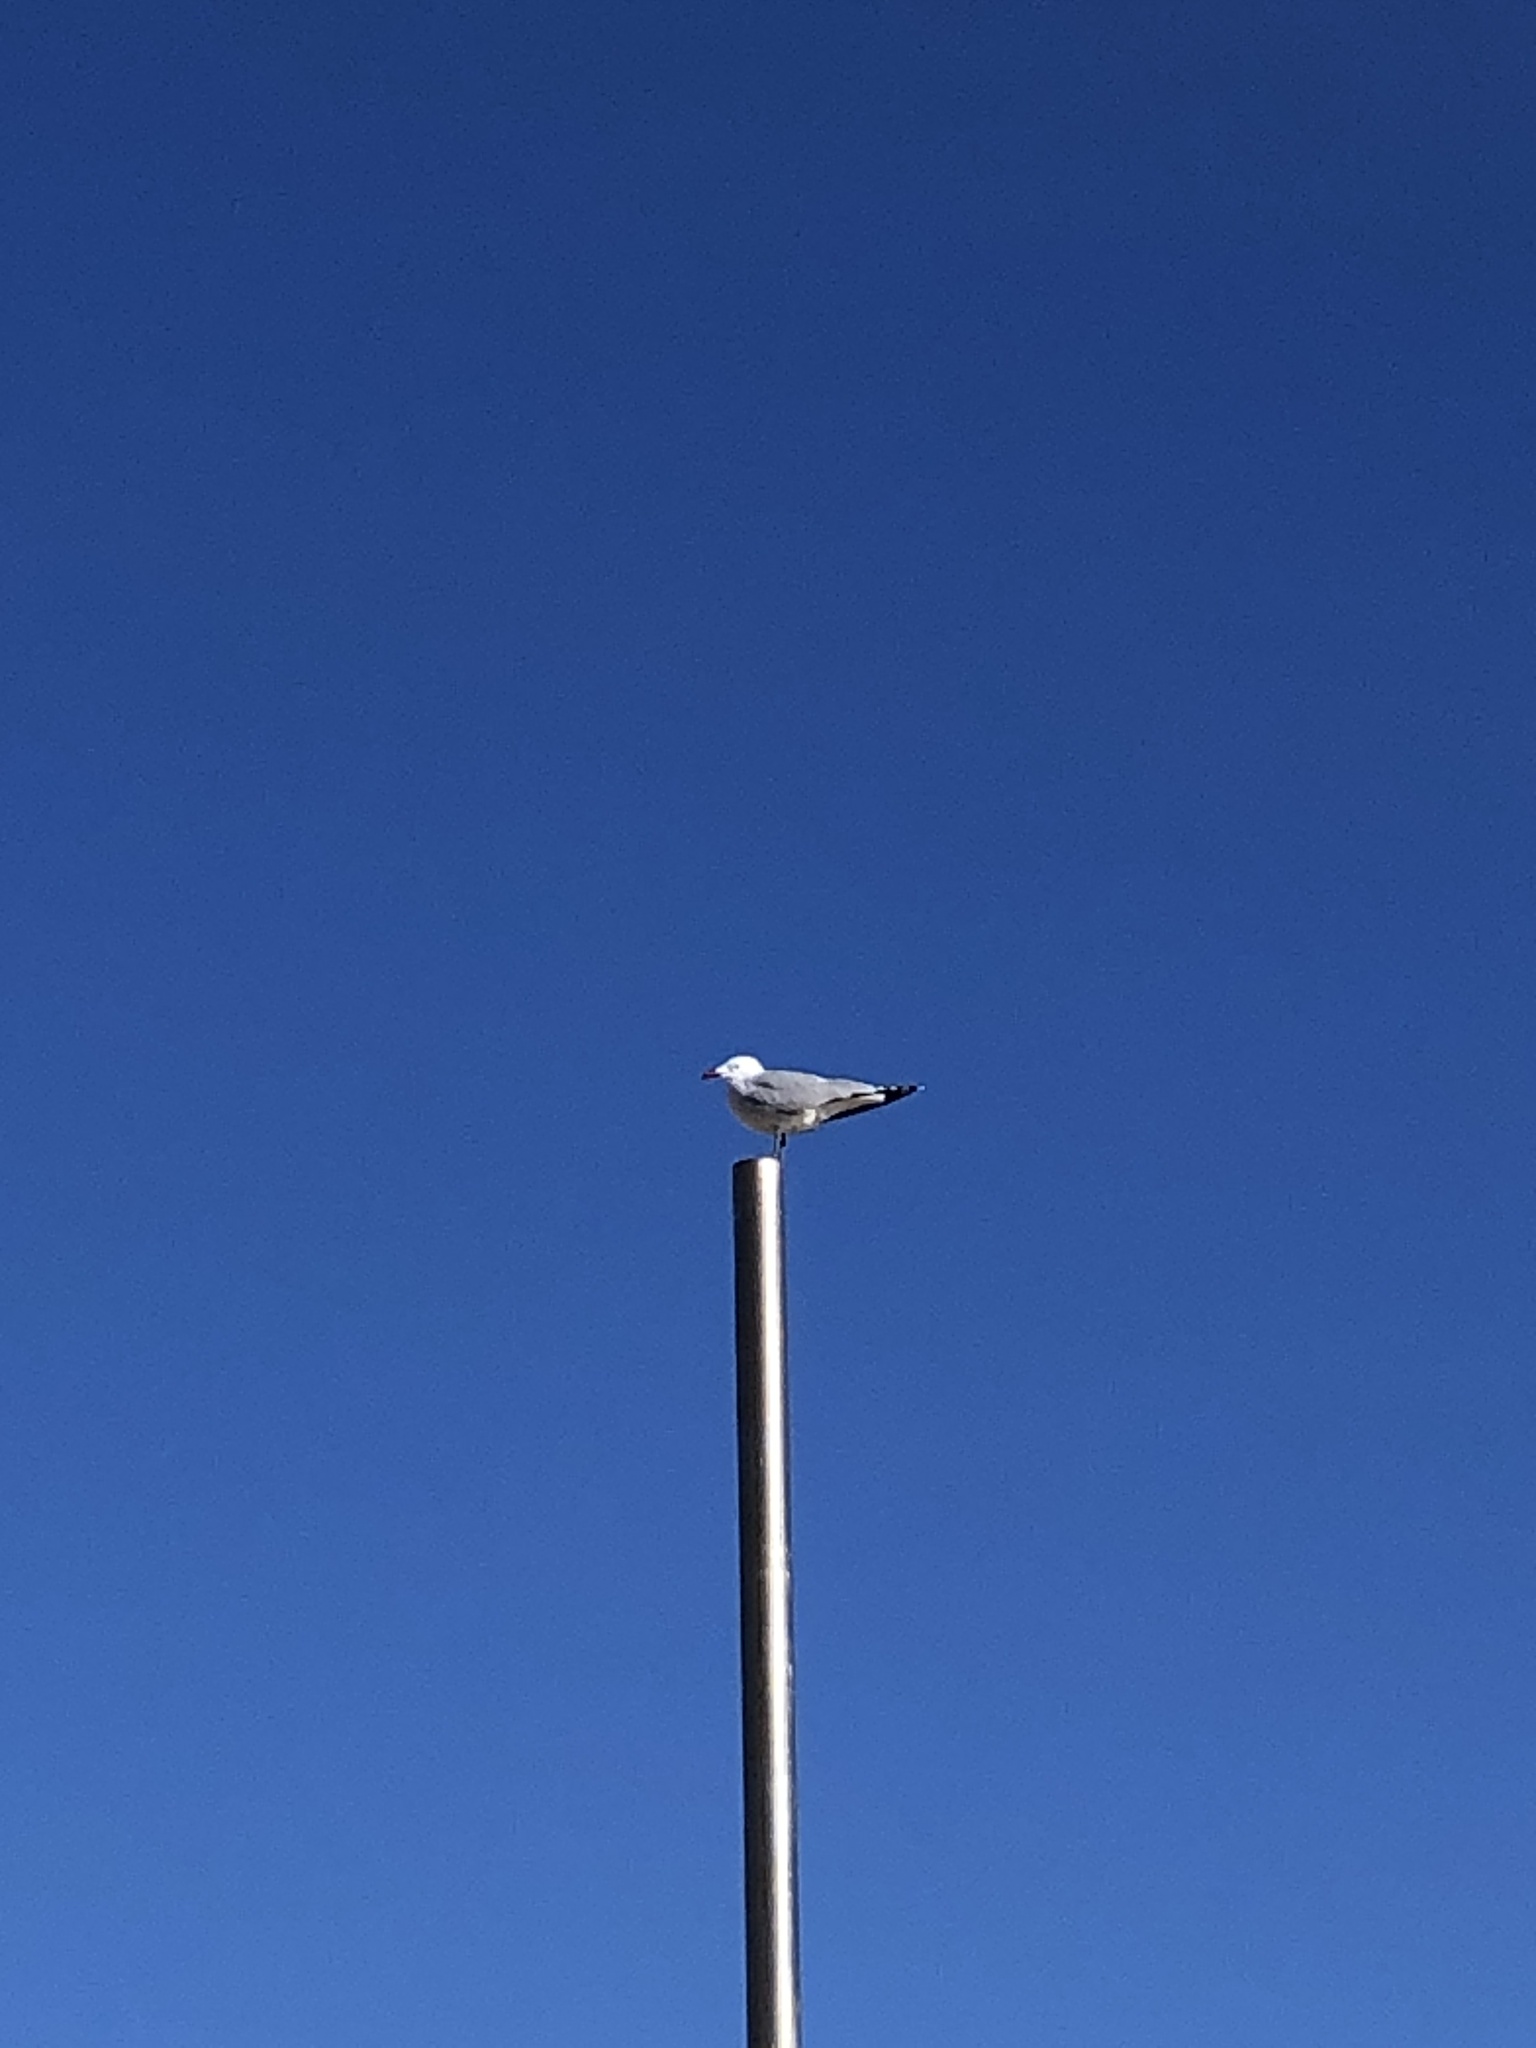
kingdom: Animalia
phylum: Chordata
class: Aves
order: Charadriiformes
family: Laridae
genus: Ichthyaetus
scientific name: Ichthyaetus audouinii
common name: Audouin's gull
